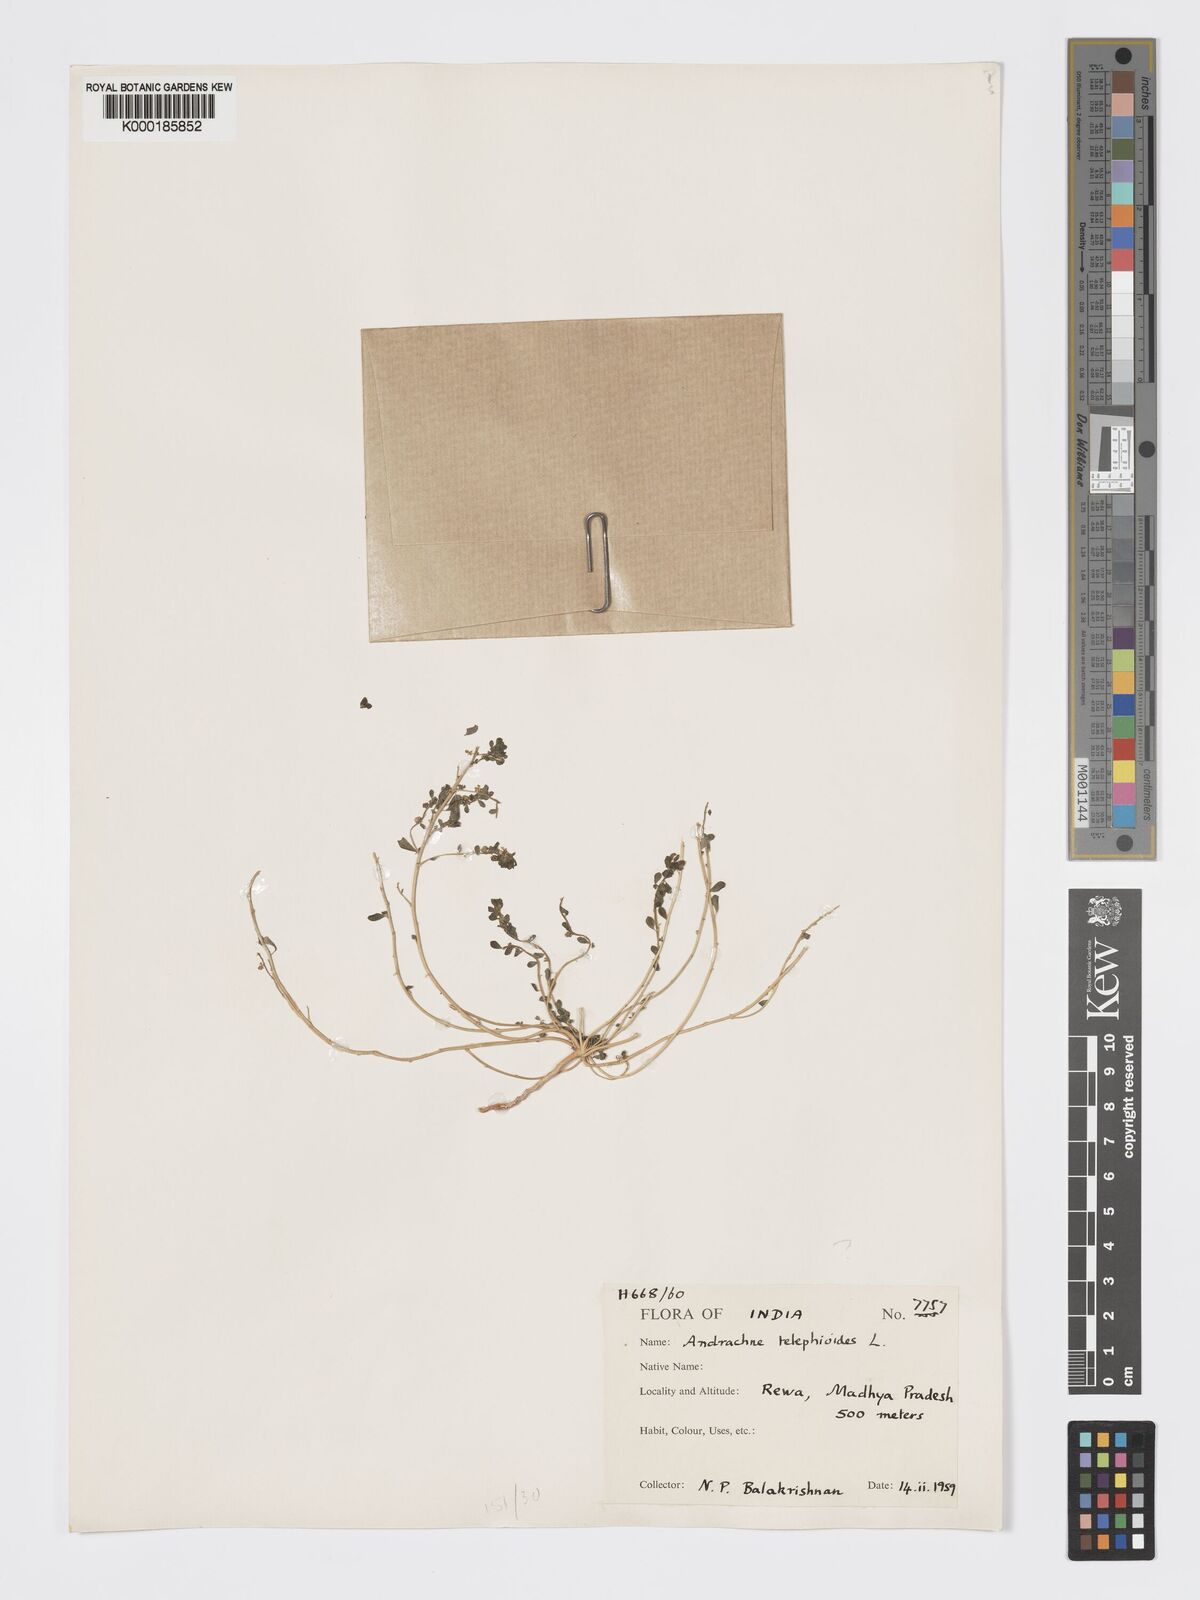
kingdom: Plantae
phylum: Tracheophyta
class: Magnoliopsida
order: Malpighiales
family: Phyllanthaceae
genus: Andrachne
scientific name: Andrachne telephioides
